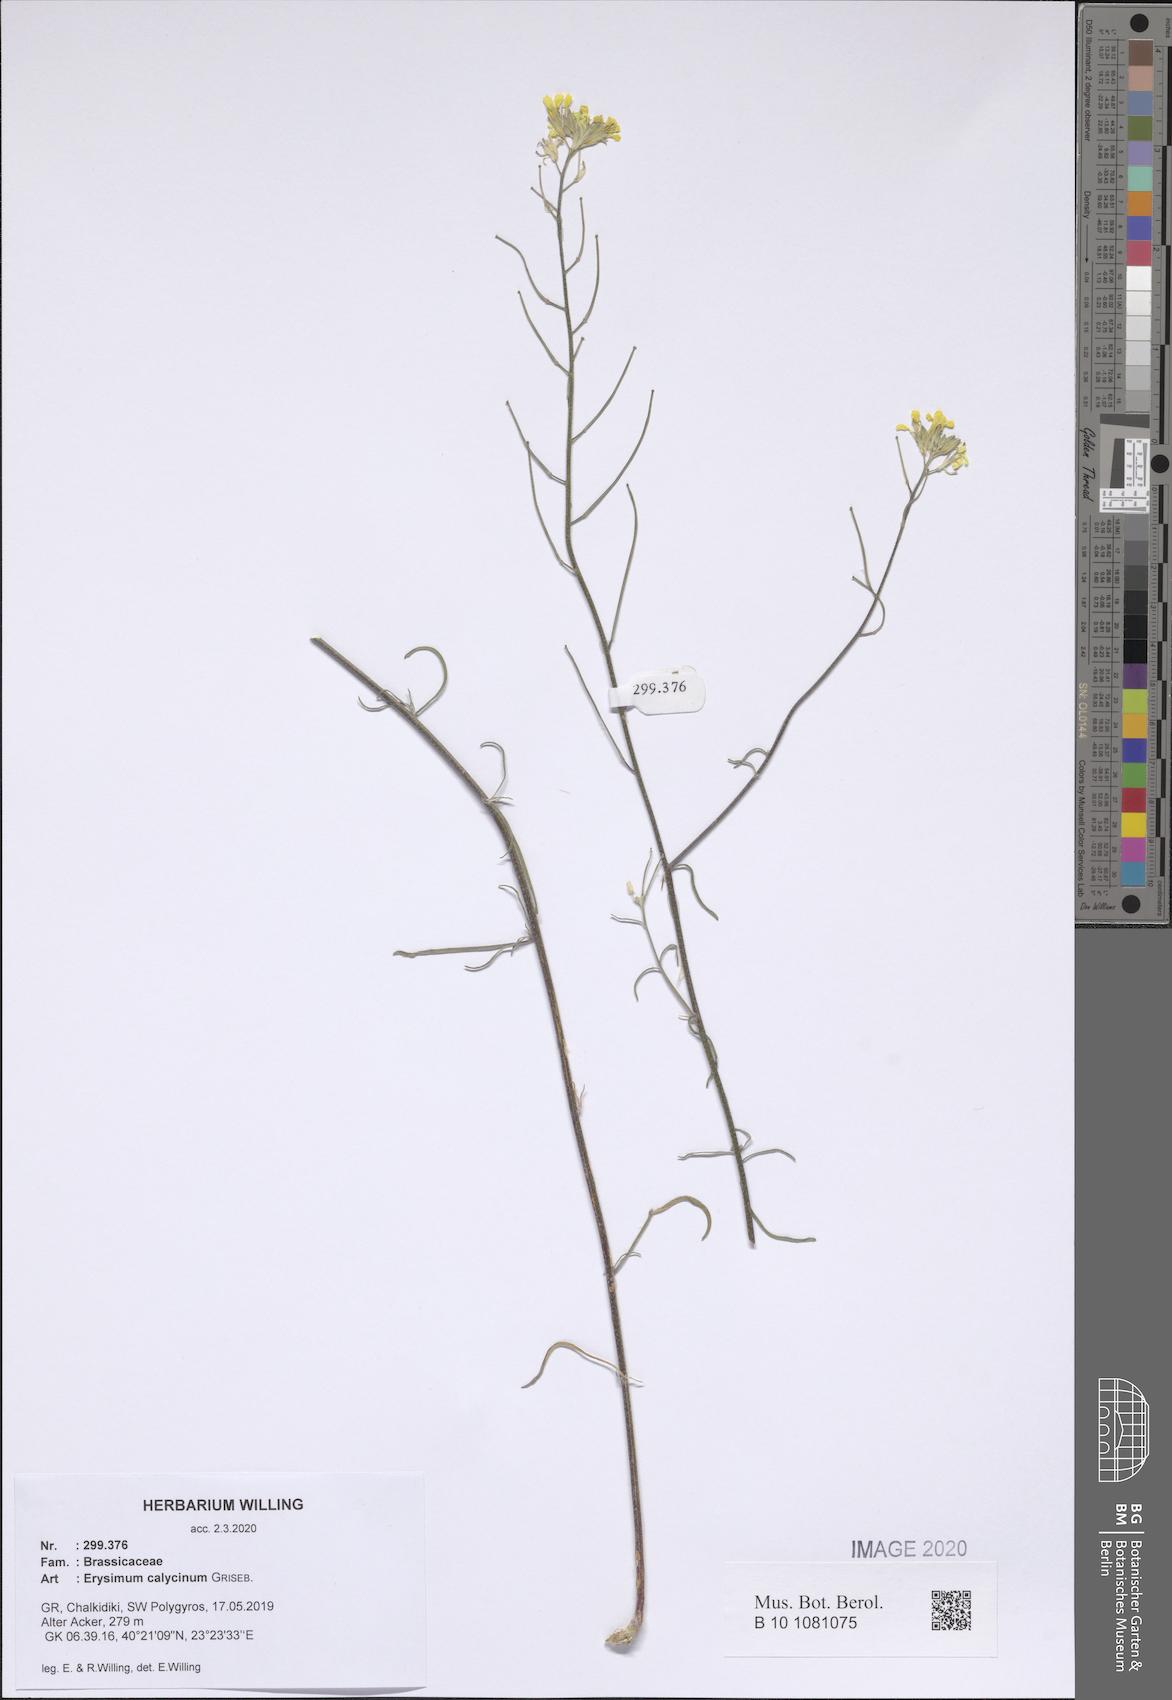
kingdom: Plantae
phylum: Tracheophyta
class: Magnoliopsida
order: Brassicales
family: Brassicaceae
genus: Erysimum
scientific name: Erysimum calycinum
